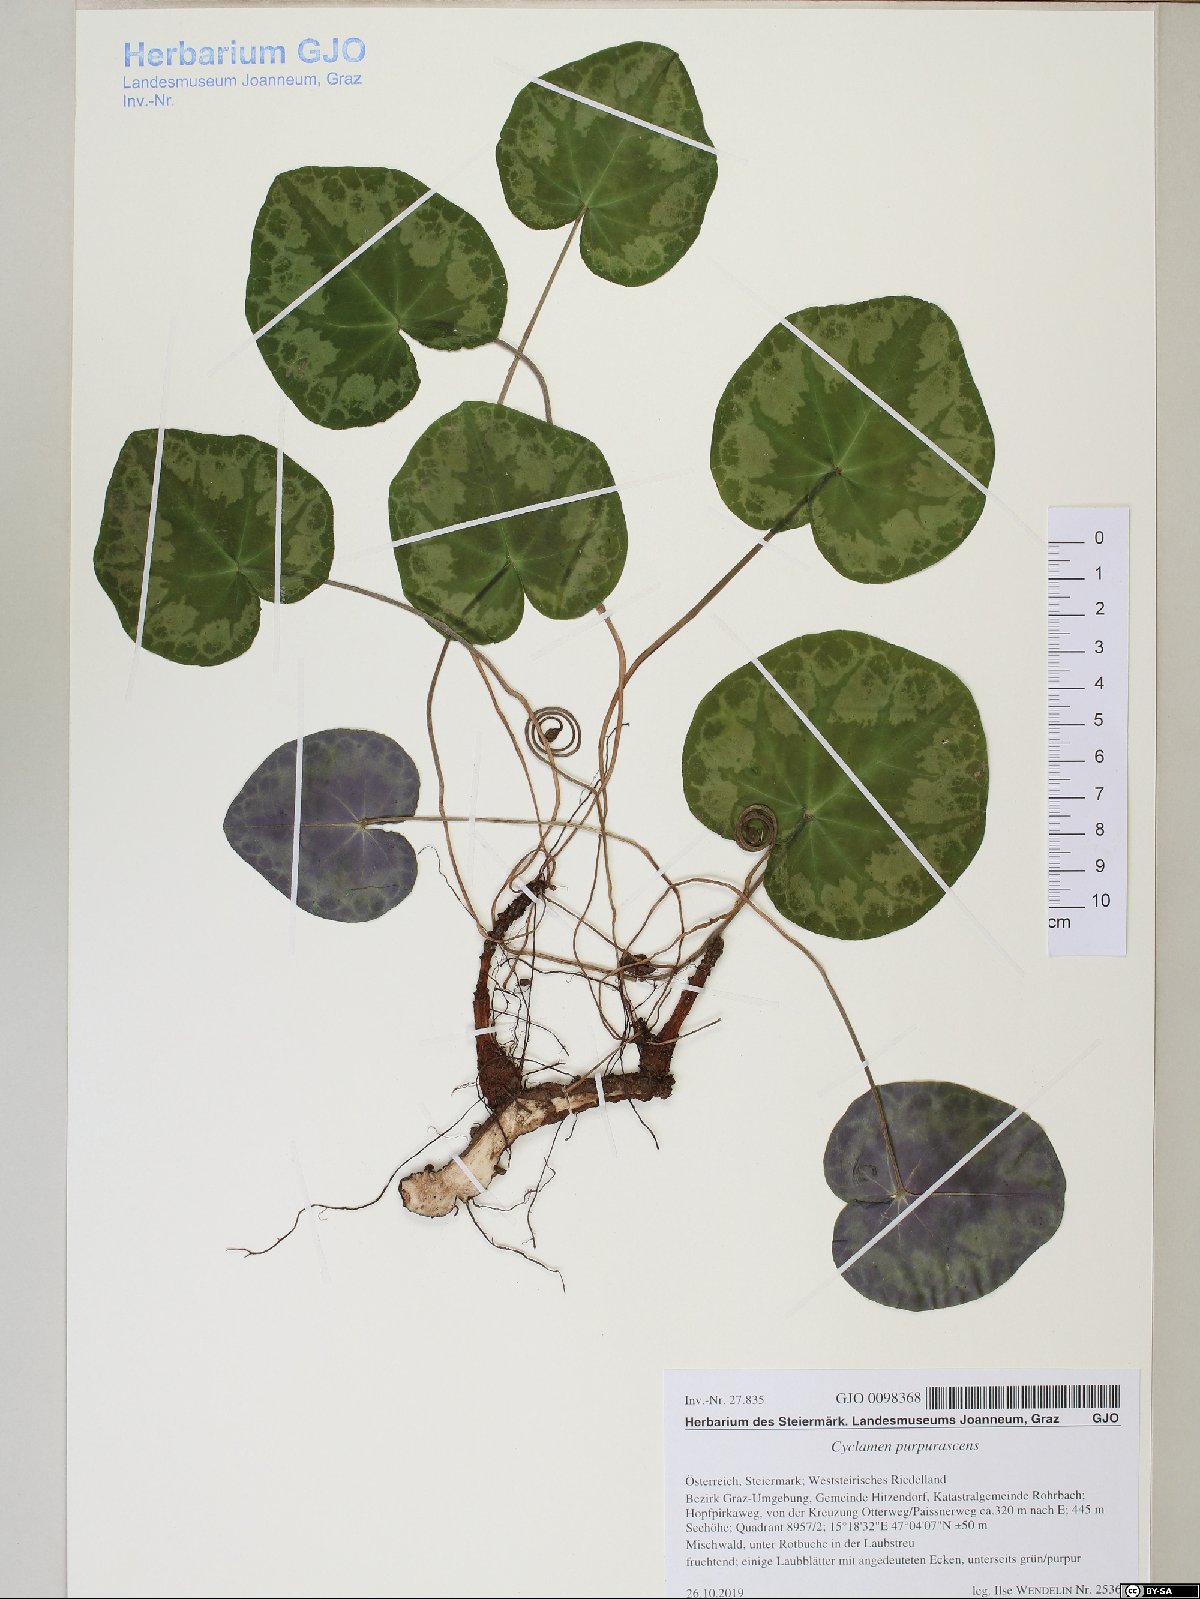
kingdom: Plantae
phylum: Tracheophyta
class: Magnoliopsida
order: Ericales
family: Primulaceae
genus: Cyclamen
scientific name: Cyclamen purpurascens
